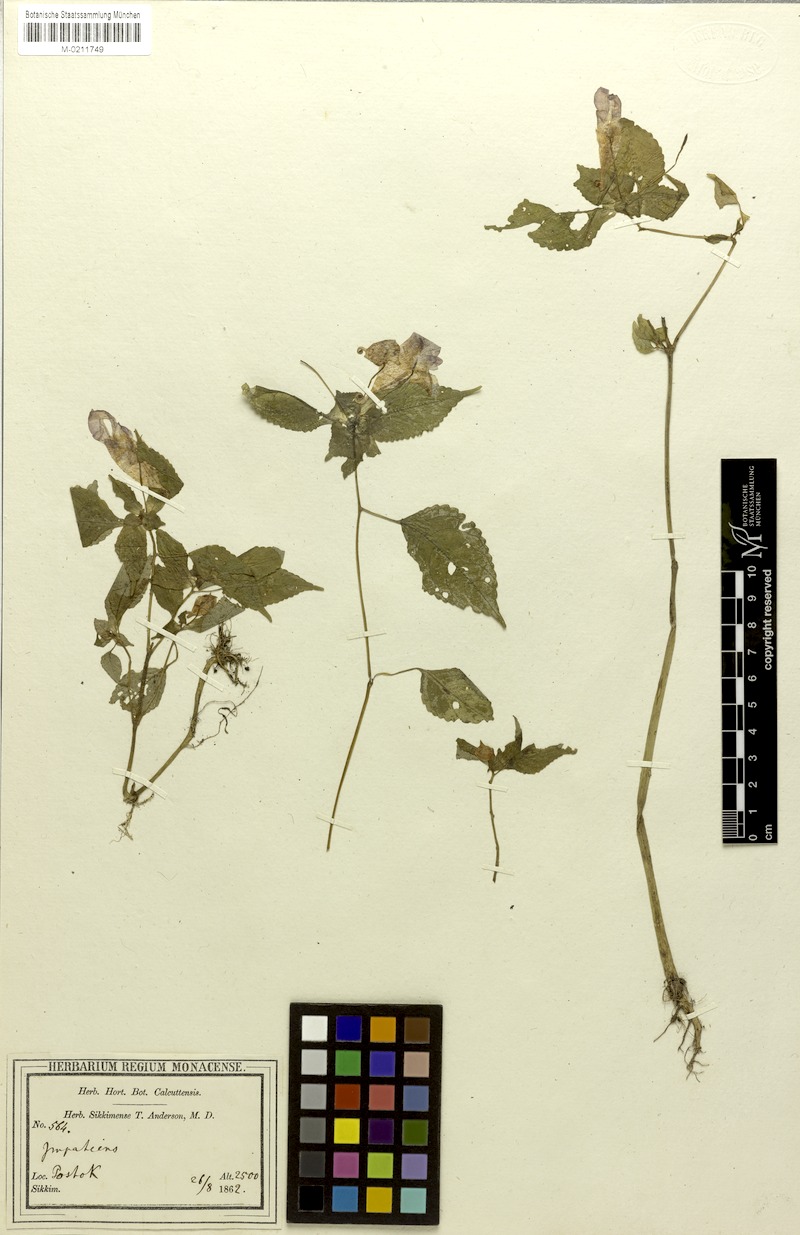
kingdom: Plantae
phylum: Tracheophyta
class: Magnoliopsida
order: Ericales
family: Balsaminaceae
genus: Impatiens
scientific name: Impatiens spirifer
